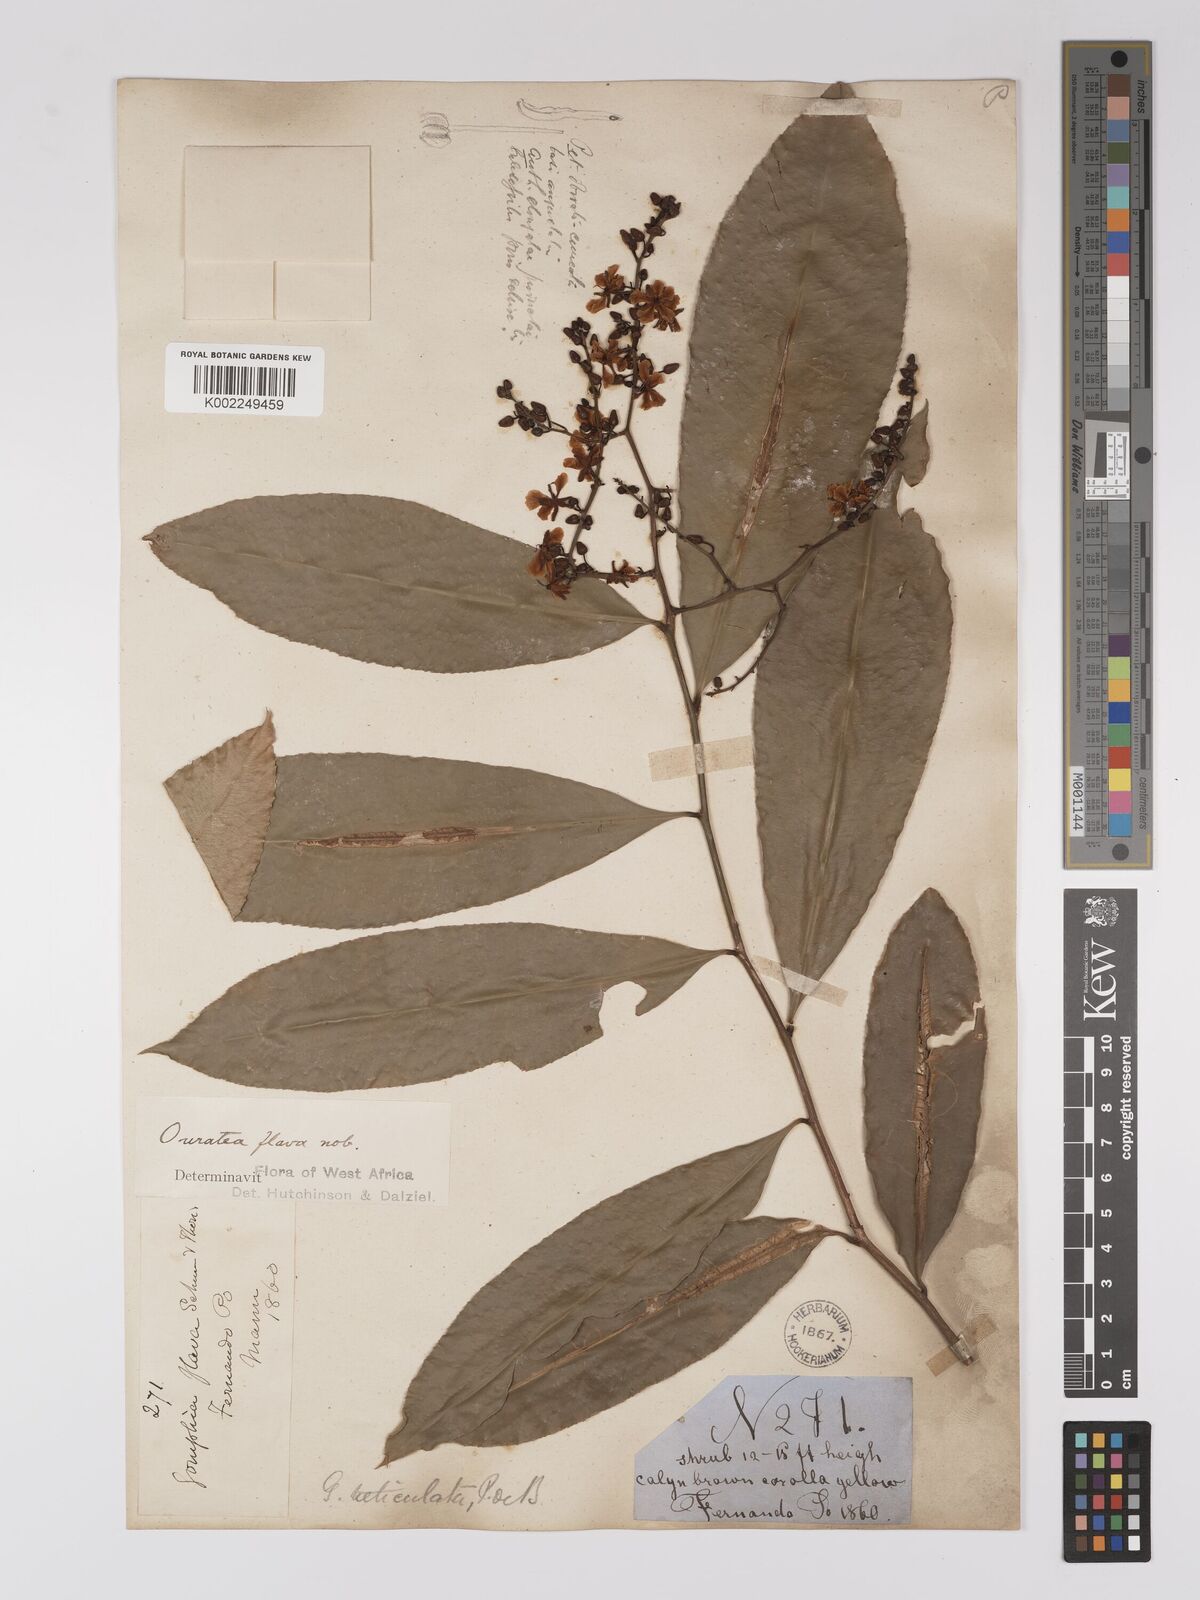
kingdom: Plantae
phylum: Tracheophyta
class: Magnoliopsida
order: Malpighiales
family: Ochnaceae
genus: Campylospermum
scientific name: Campylospermum flavum
